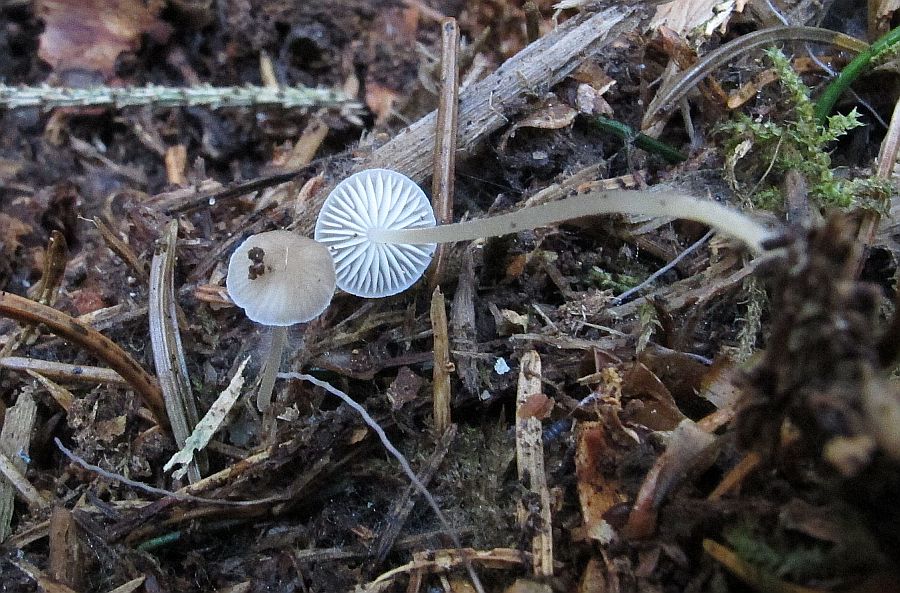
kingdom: Fungi
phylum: Basidiomycota
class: Agaricomycetes
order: Agaricales
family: Physalacriaceae
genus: Strobilurus
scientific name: Strobilurus esculentus
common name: gran-koglehat
